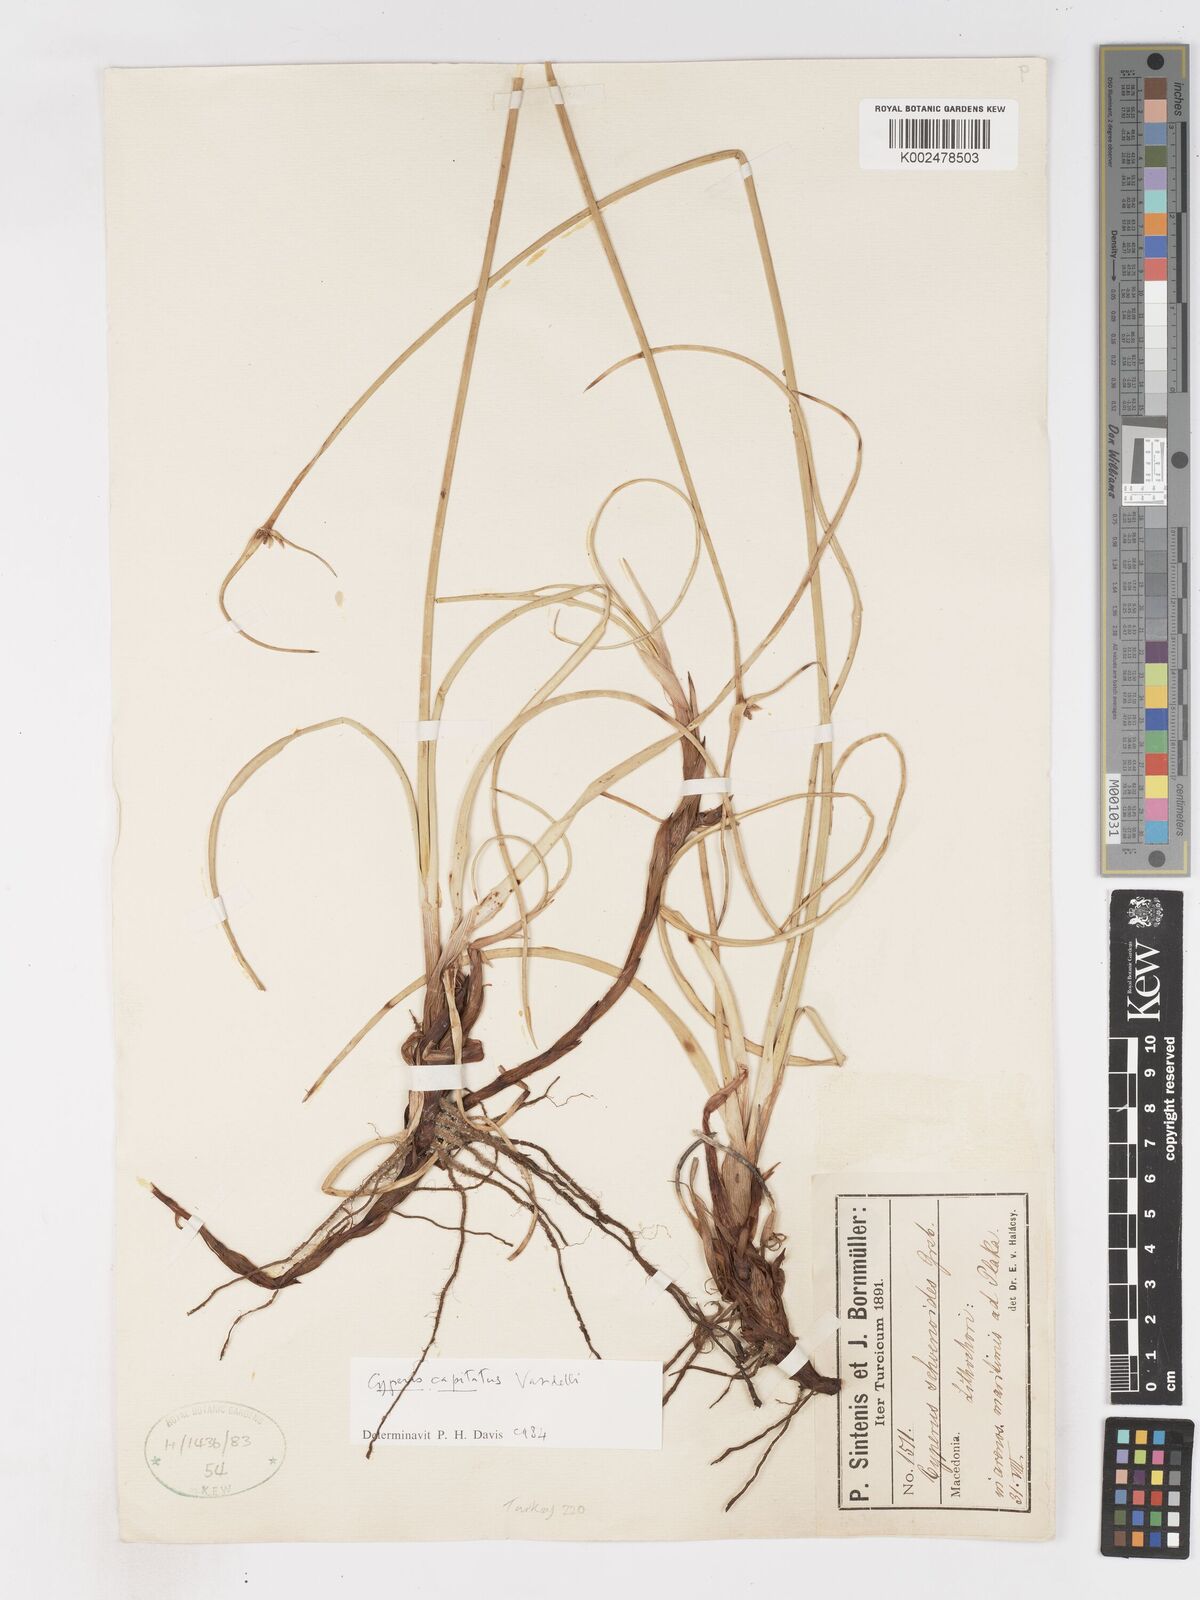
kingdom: Plantae
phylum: Tracheophyta
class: Liliopsida
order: Poales
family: Cyperaceae
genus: Cyperus
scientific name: Cyperus capitatus
